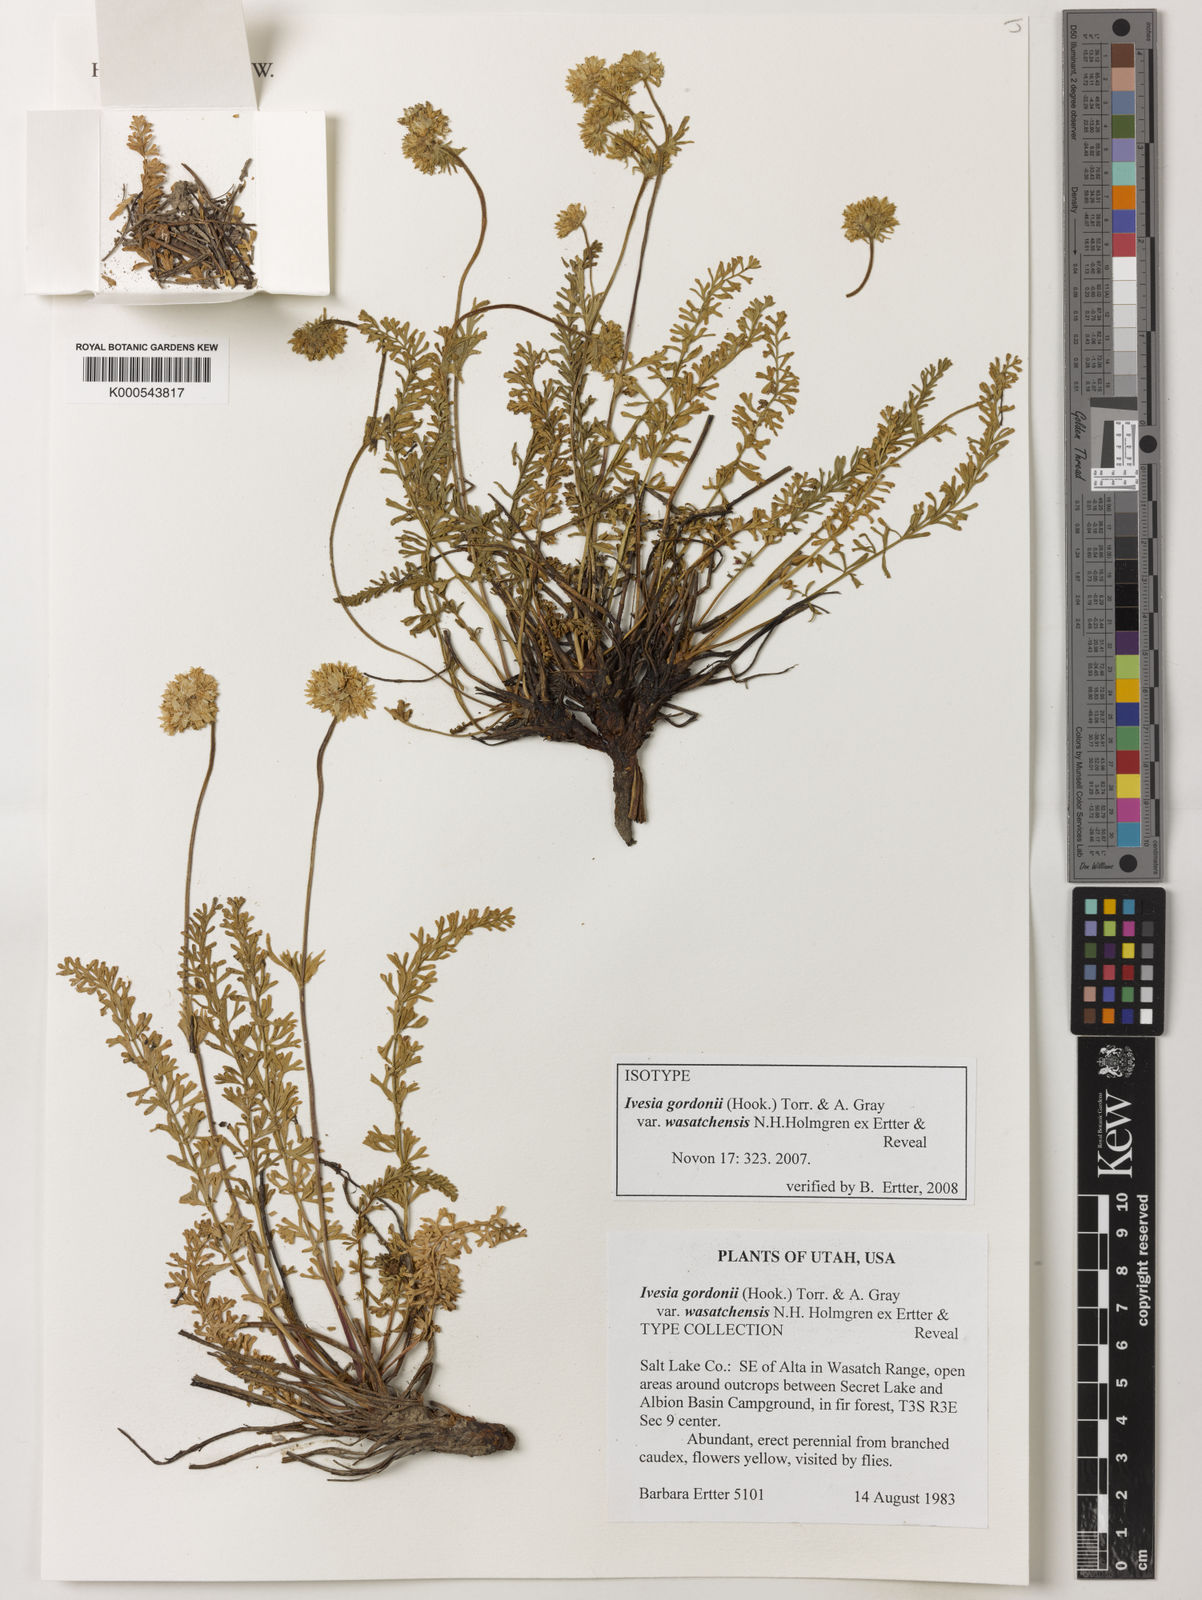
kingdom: Plantae
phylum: Tracheophyta
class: Magnoliopsida
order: Rosales
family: Rosaceae
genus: Potentilla
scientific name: Potentilla gordonii
